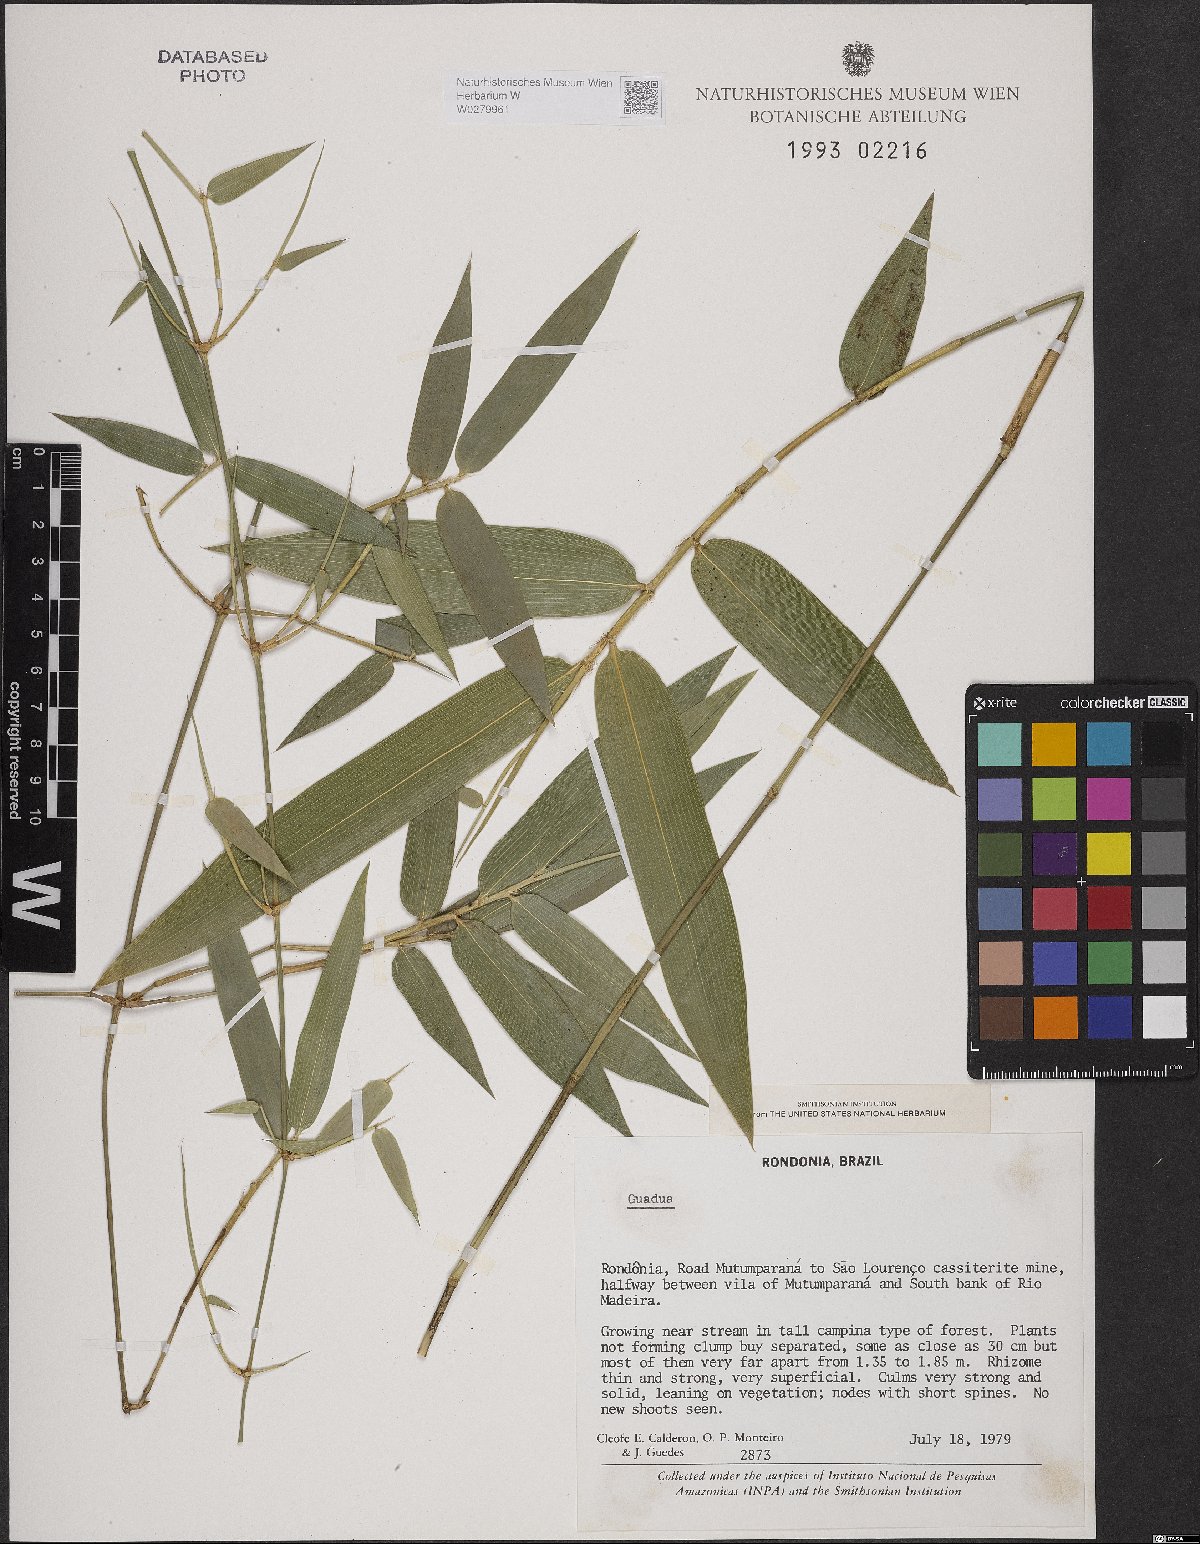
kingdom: Plantae
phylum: Tracheophyta
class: Liliopsida
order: Poales
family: Poaceae
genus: Eremocaulon
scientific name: Eremocaulon capitatum
